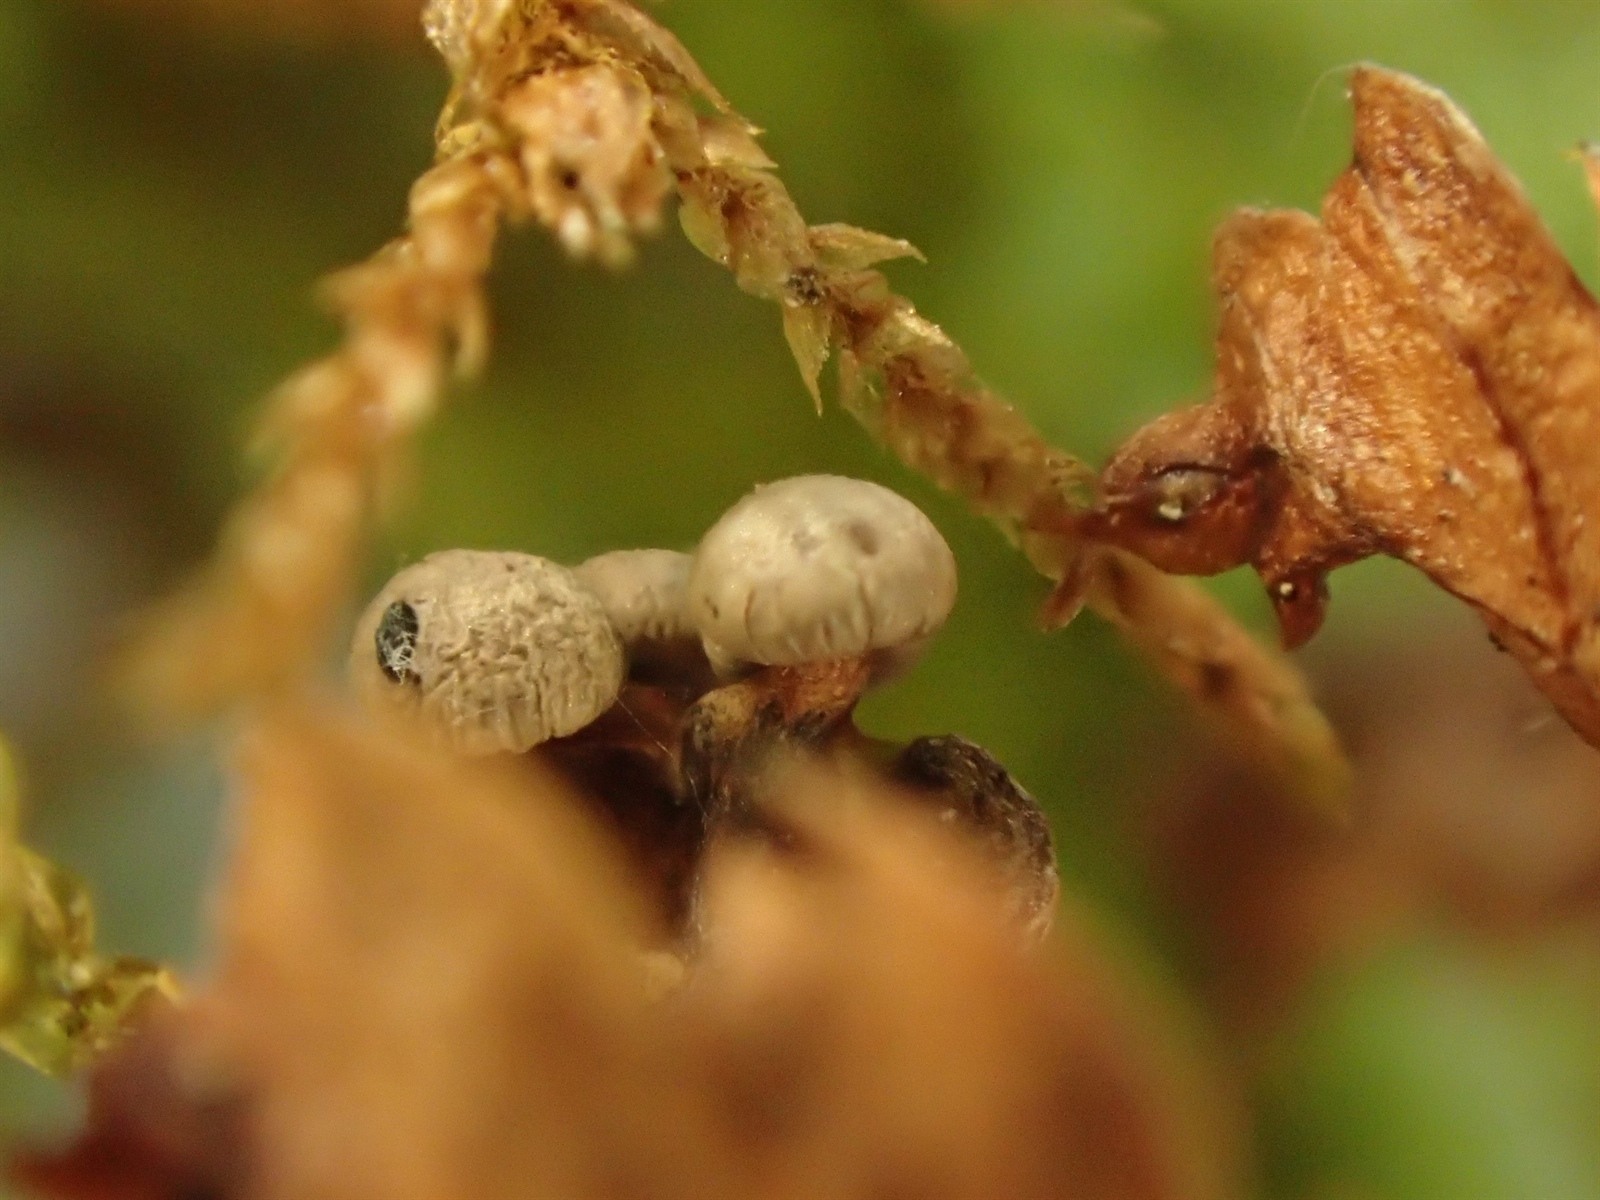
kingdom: Protozoa
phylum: Mycetozoa
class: Myxomycetes
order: Physarales
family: Didymiaceae
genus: Diderma
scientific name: Diderma umbilicatum
